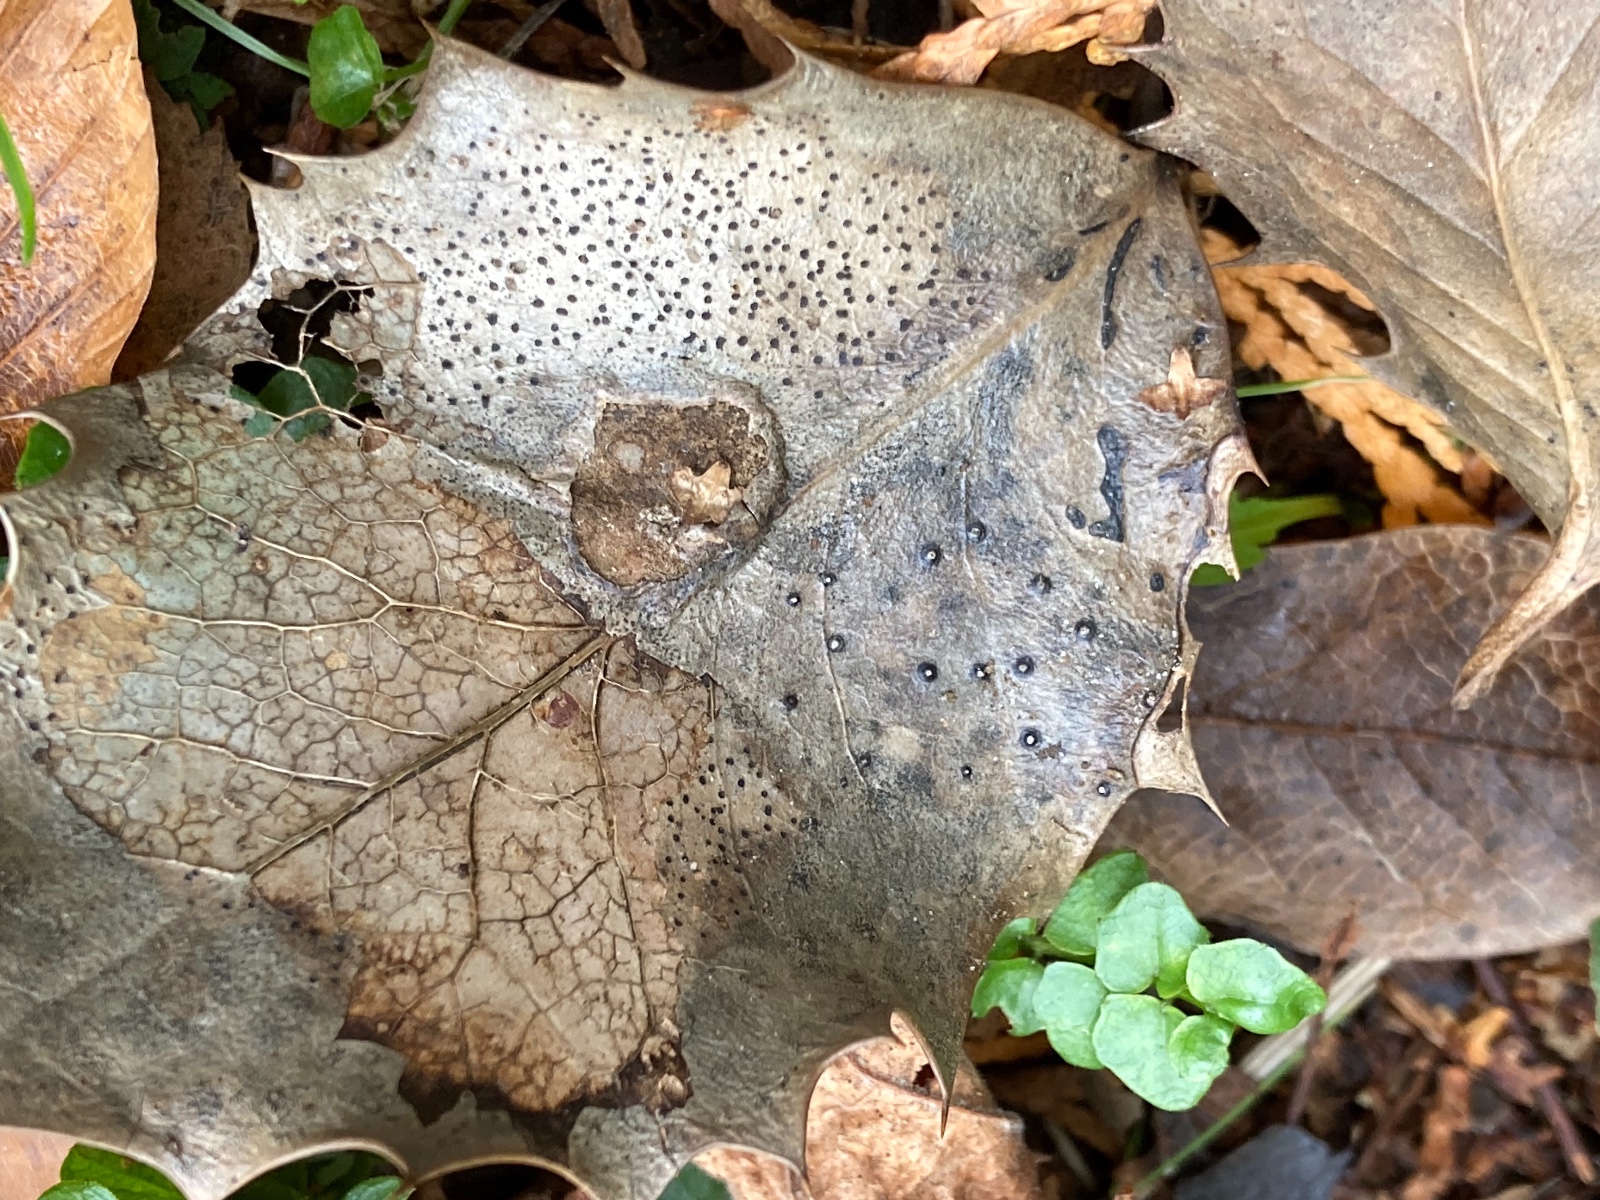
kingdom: Fungi
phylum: Ascomycota
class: Leotiomycetes
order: Phacidiales
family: Phacidiaceae
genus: Phacidium
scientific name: Phacidium lauri
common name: kristtorn-tandskive
